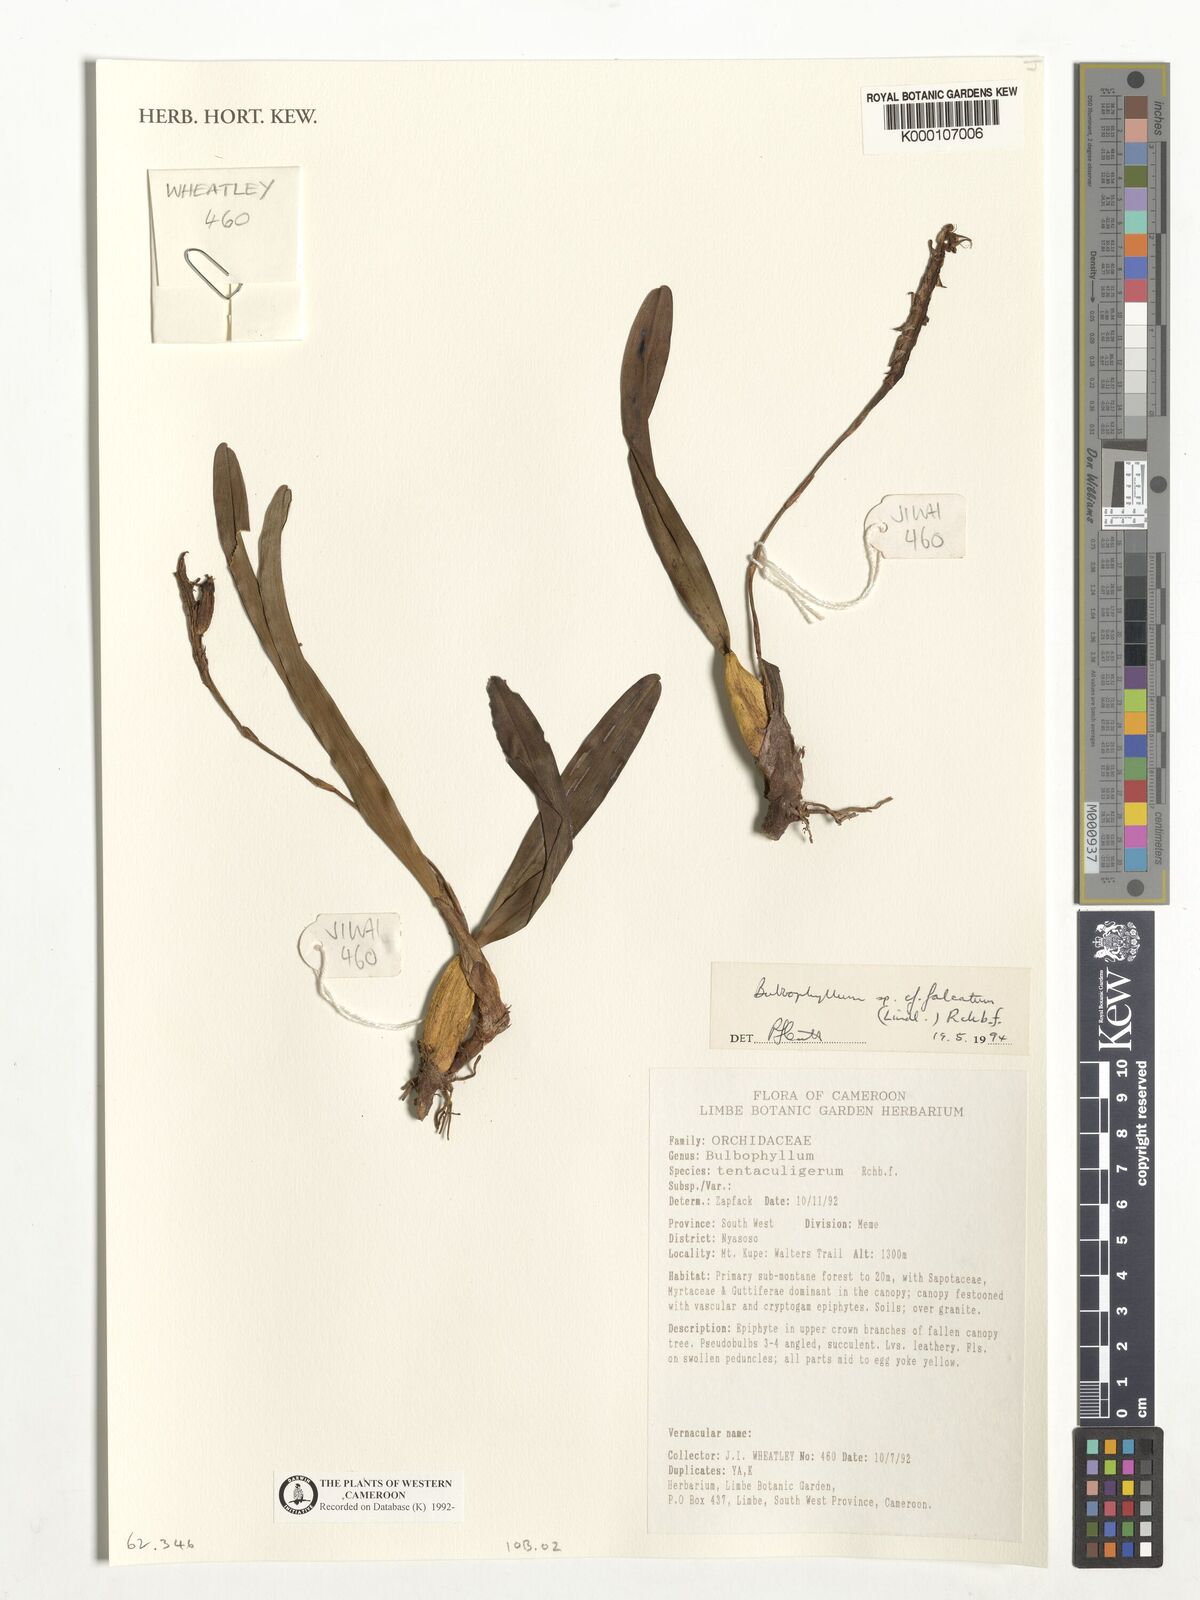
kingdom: Plantae
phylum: Tracheophyta
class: Liliopsida
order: Asparagales
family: Orchidaceae
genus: Bulbophyllum
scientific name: Bulbophyllum falcatum
